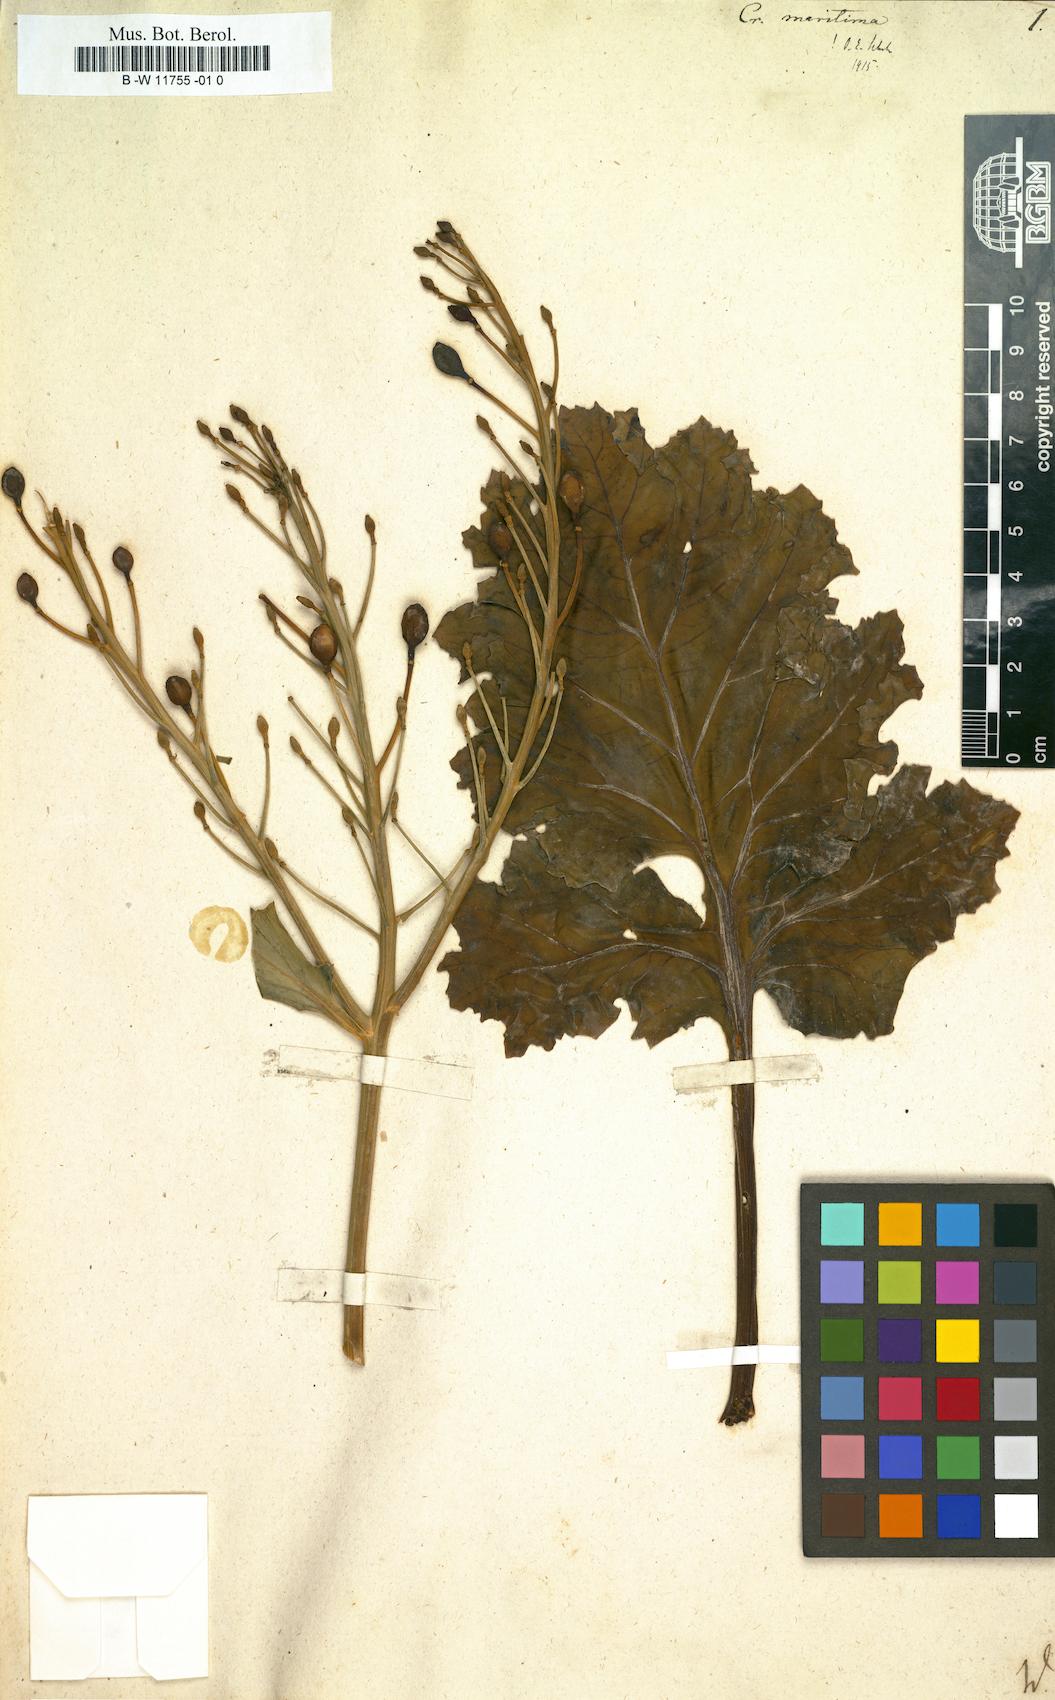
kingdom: Plantae
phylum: Tracheophyta
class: Magnoliopsida
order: Brassicales
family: Brassicaceae
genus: Crambe
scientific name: Crambe maritima
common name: Sea-kale
